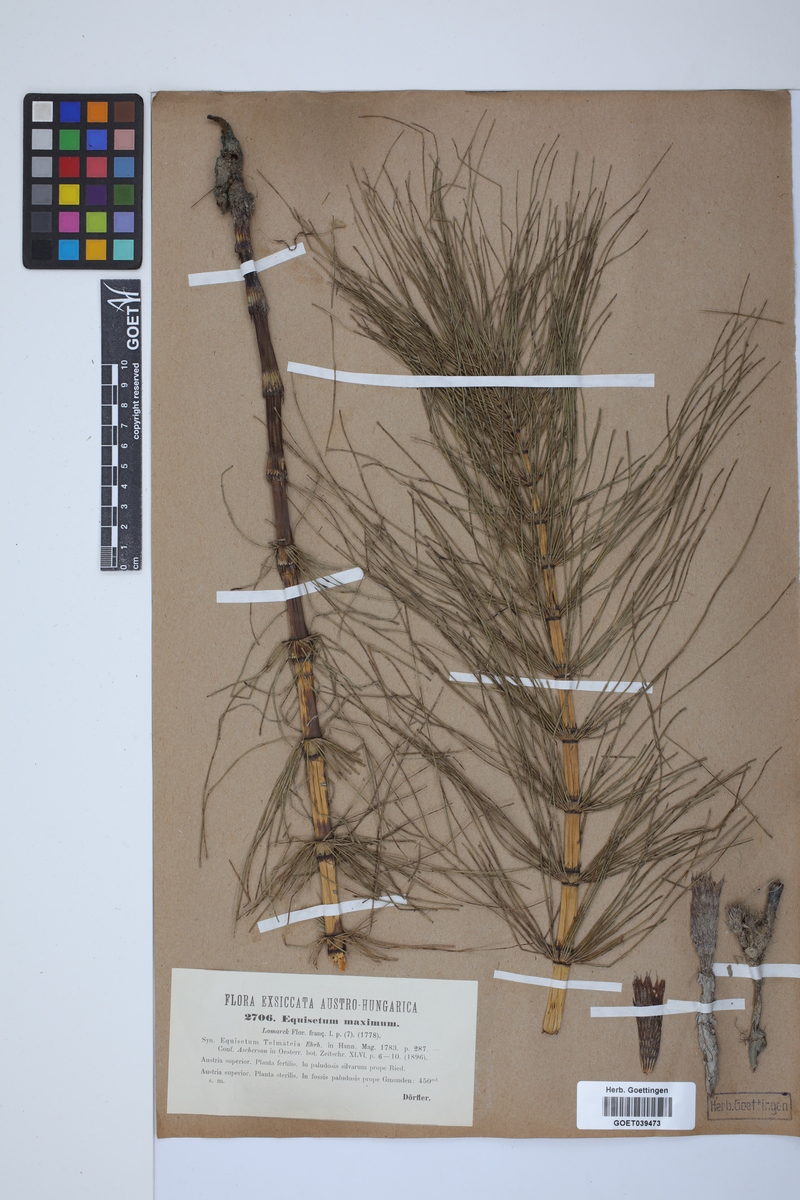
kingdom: Plantae
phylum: Tracheophyta
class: Polypodiopsida
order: Equisetales
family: Equisetaceae
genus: Equisetum
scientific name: Equisetum telmateia
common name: Great horsetail
